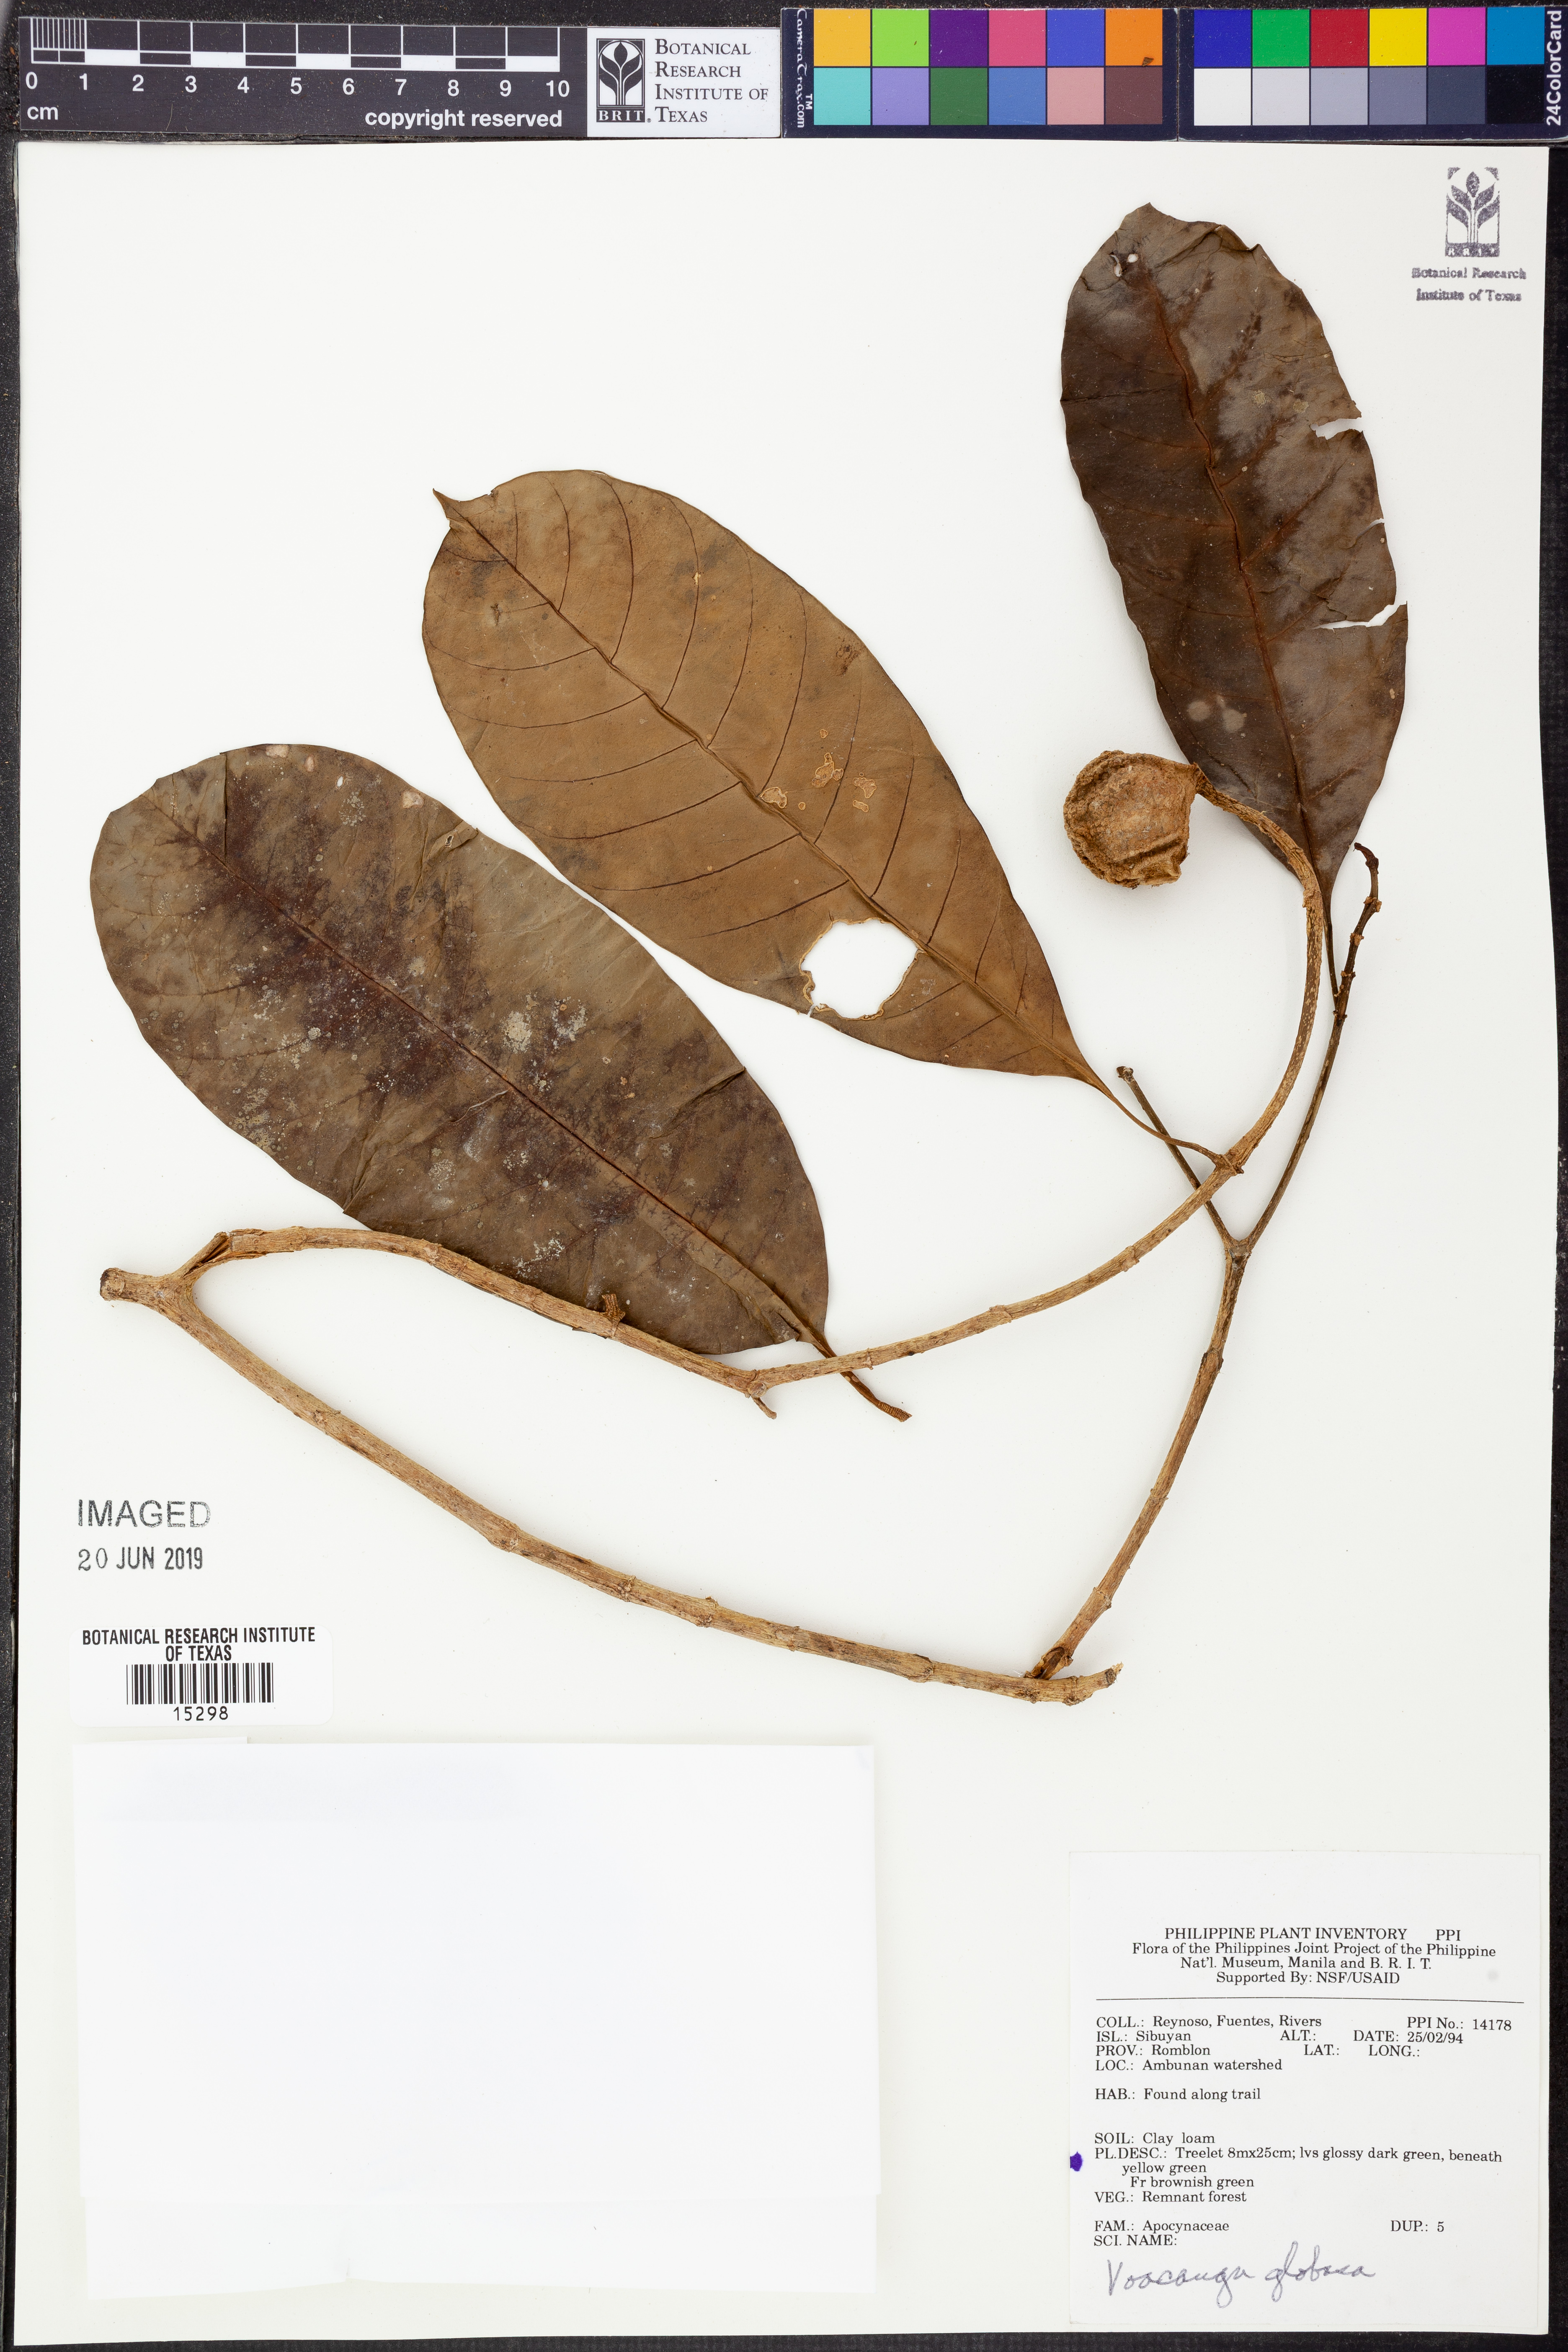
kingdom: Plantae
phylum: Tracheophyta
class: Magnoliopsida
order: Gentianales
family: Apocynaceae
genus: Voacanga
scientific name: Voacanga globosa
